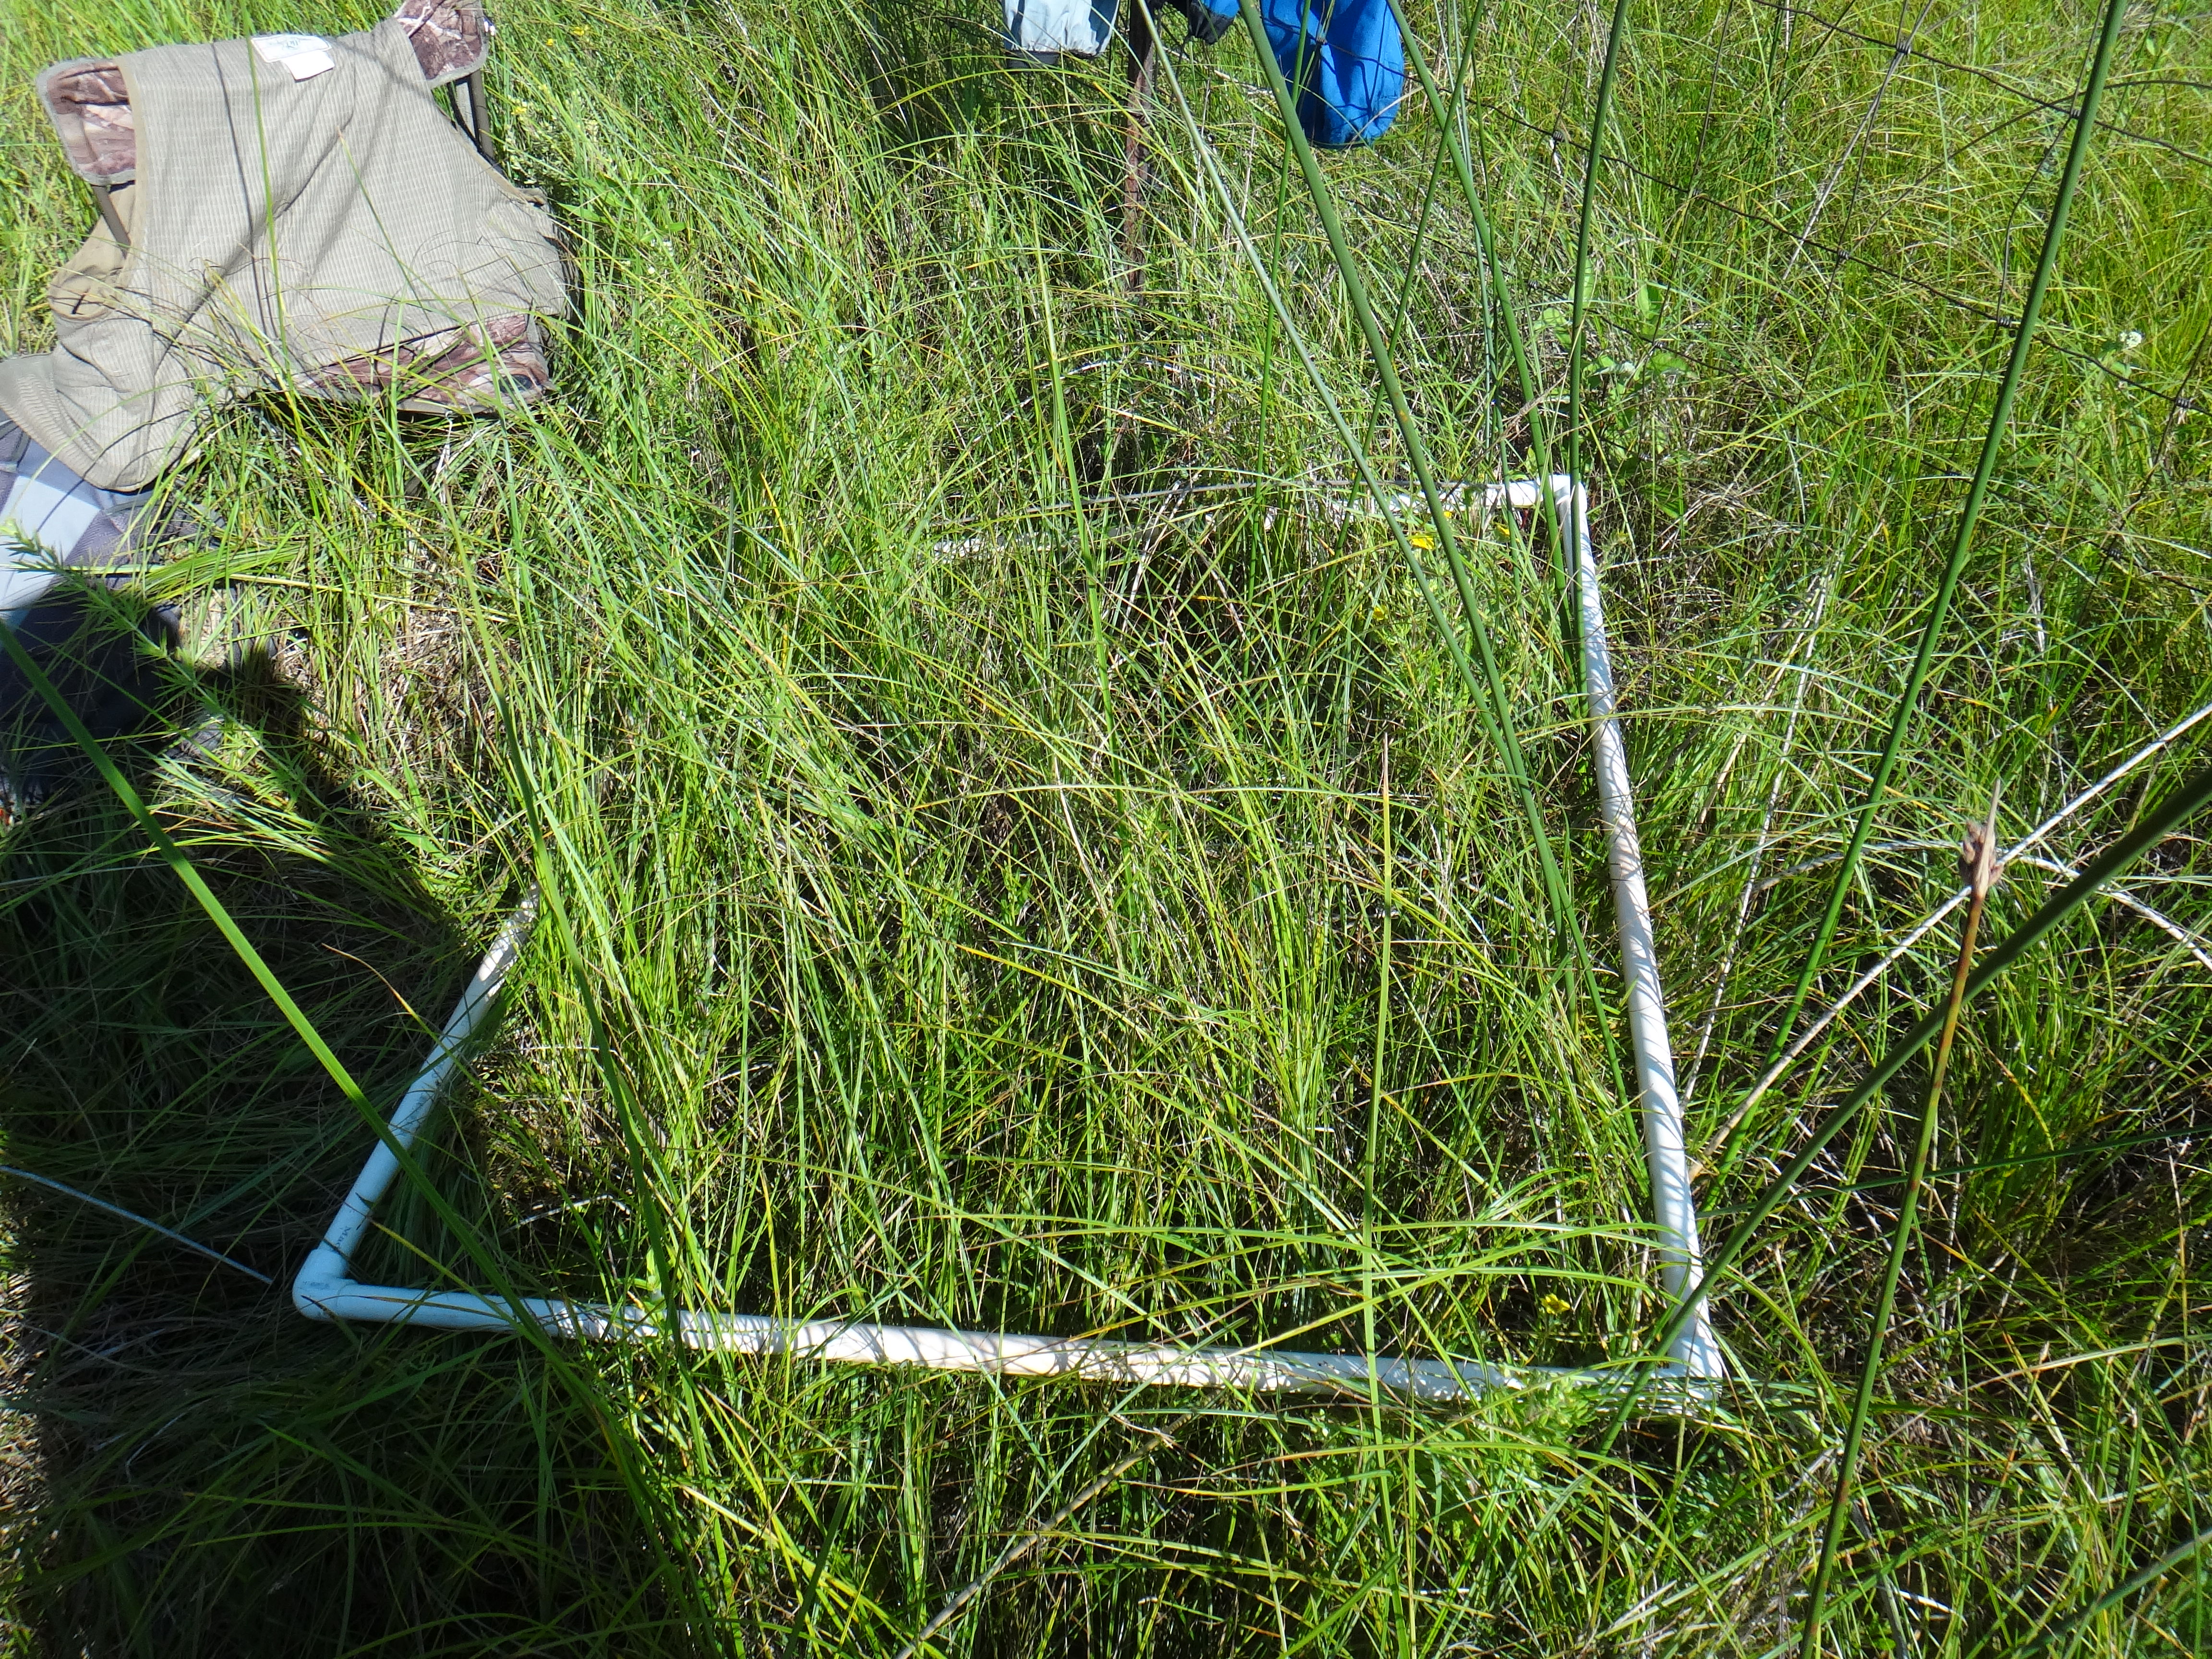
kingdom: Plantae
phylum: Tracheophyta
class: Magnoliopsida
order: Rosales
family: Rosaceae
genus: Dasiphora
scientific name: Dasiphora fruticosa
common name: Shrubby cinquefoil
